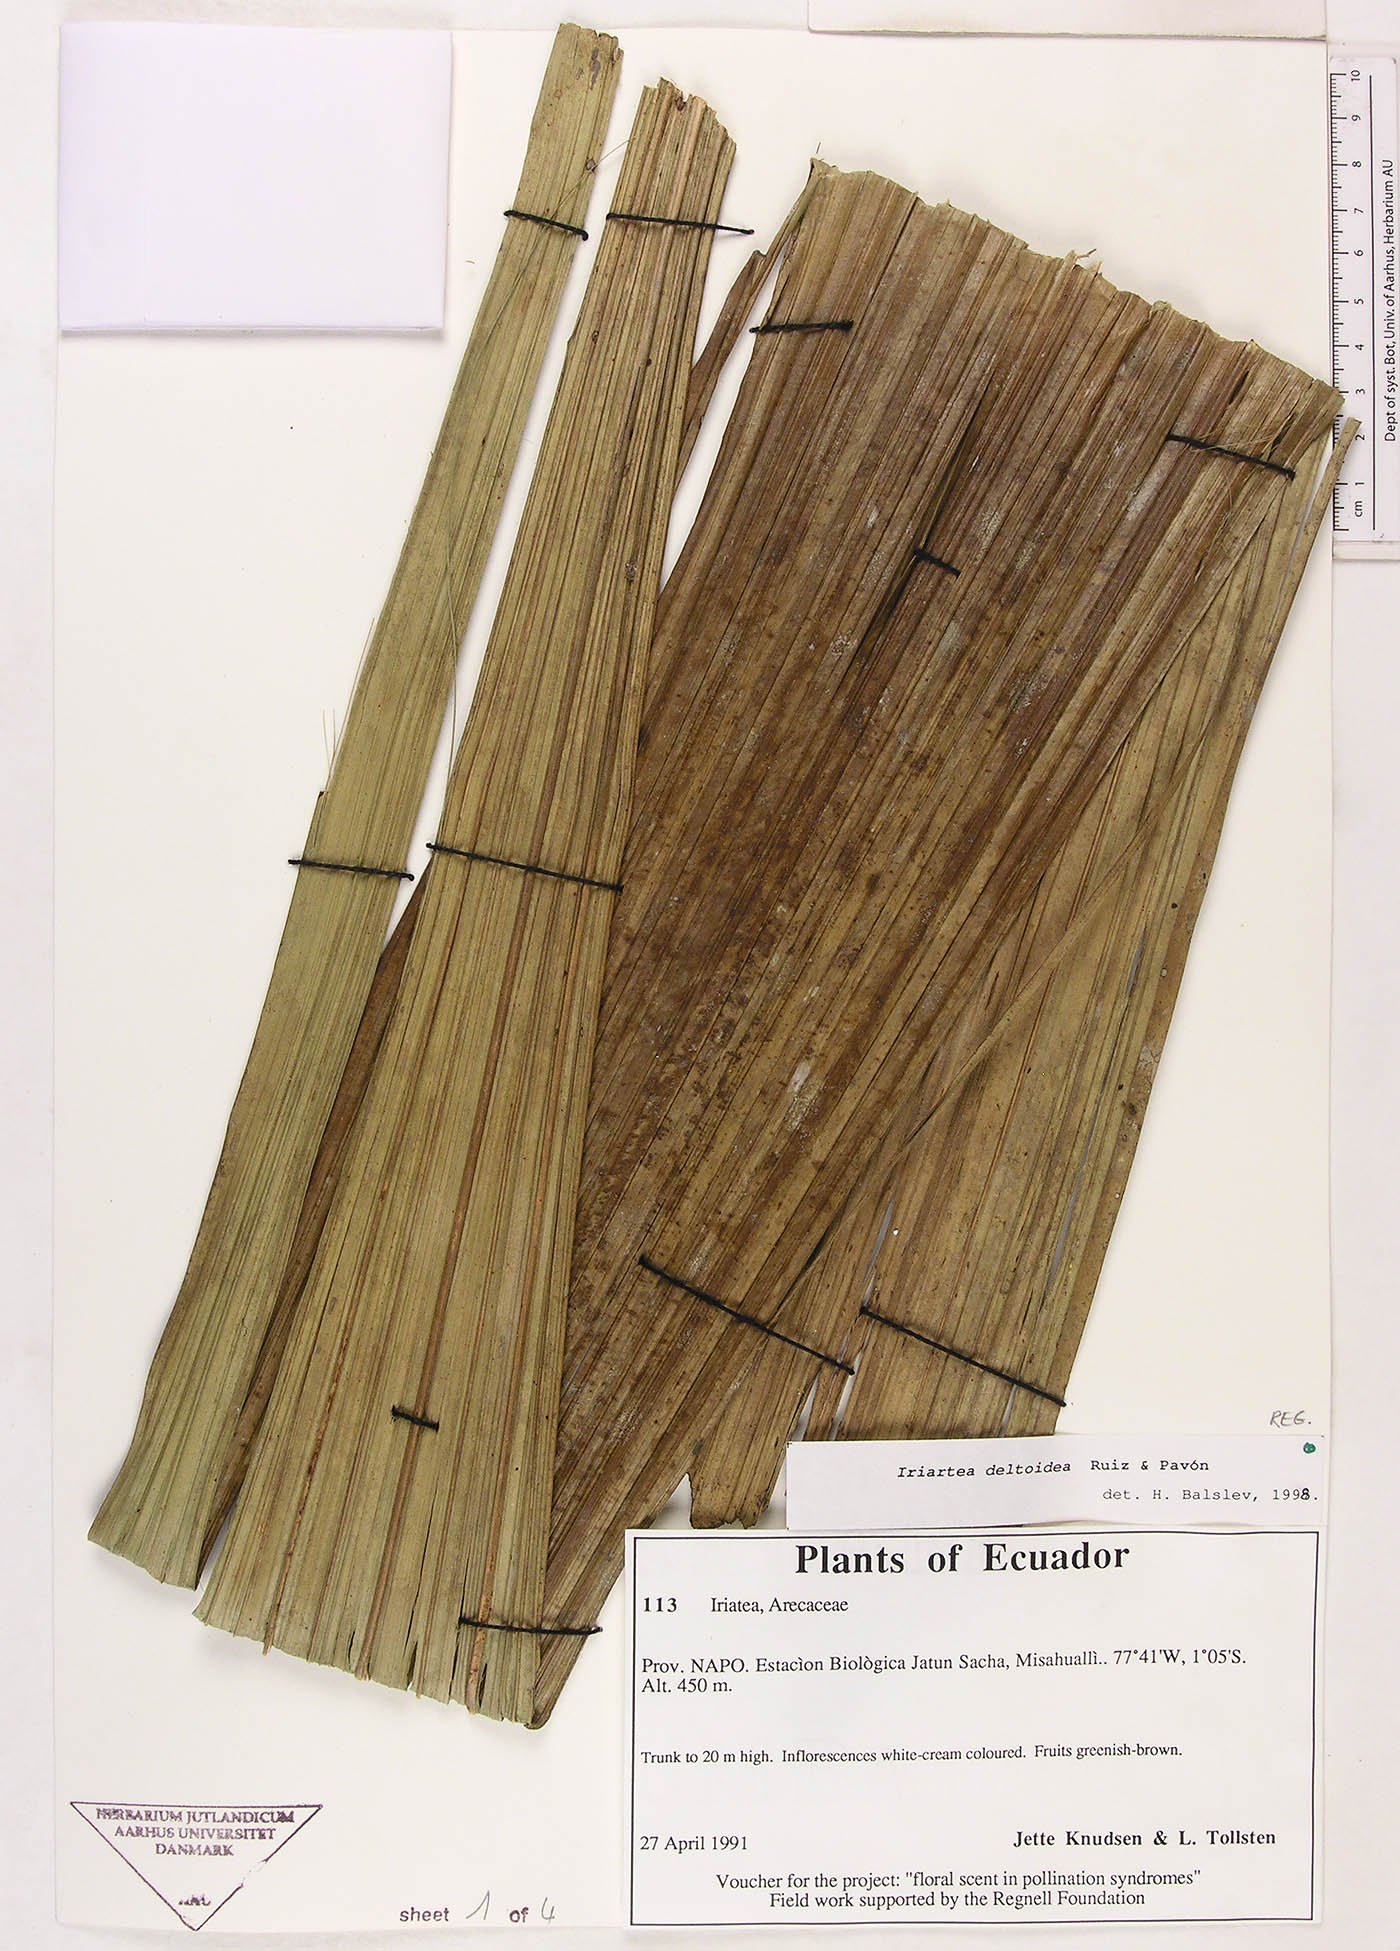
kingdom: Plantae
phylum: Tracheophyta
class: Liliopsida
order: Arecales
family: Arecaceae
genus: Iriartea
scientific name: Iriartea deltoidea
